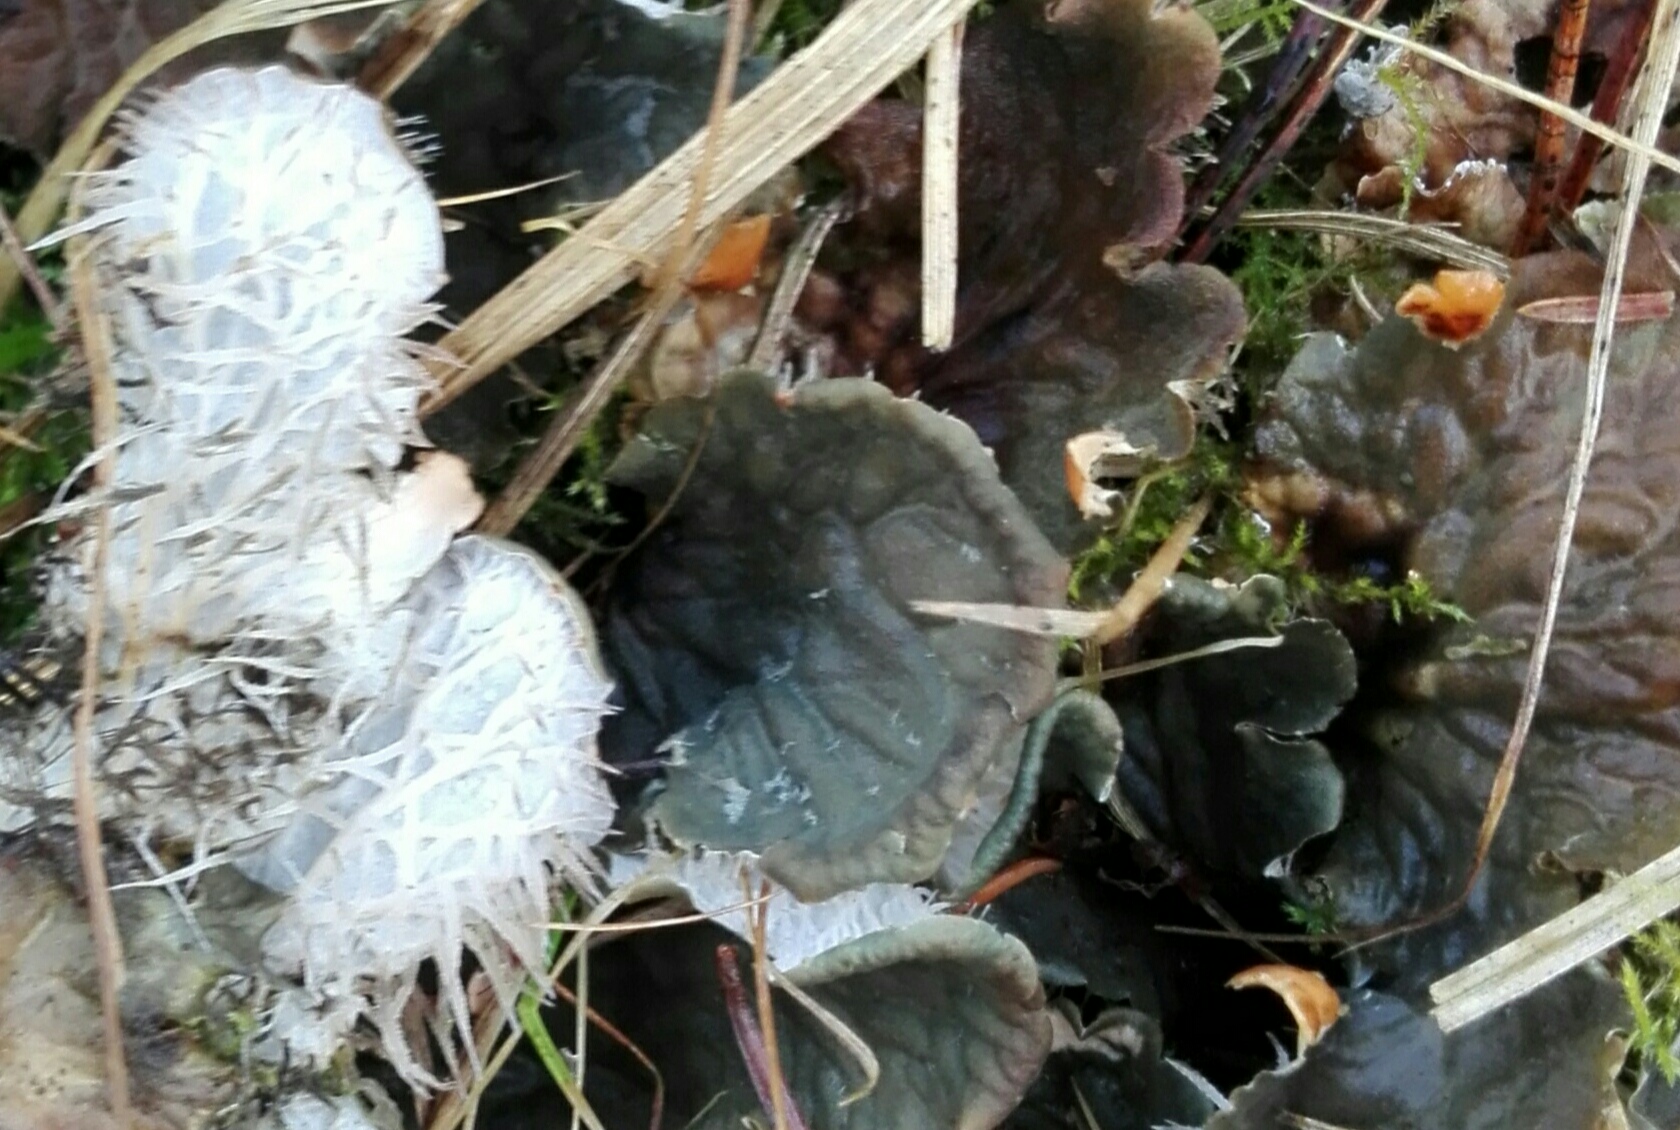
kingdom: Fungi
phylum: Ascomycota
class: Lecanoromycetes
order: Peltigerales
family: Peltigeraceae
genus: Peltigera
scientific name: Peltigera membranacea
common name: tynd skjoldlav
